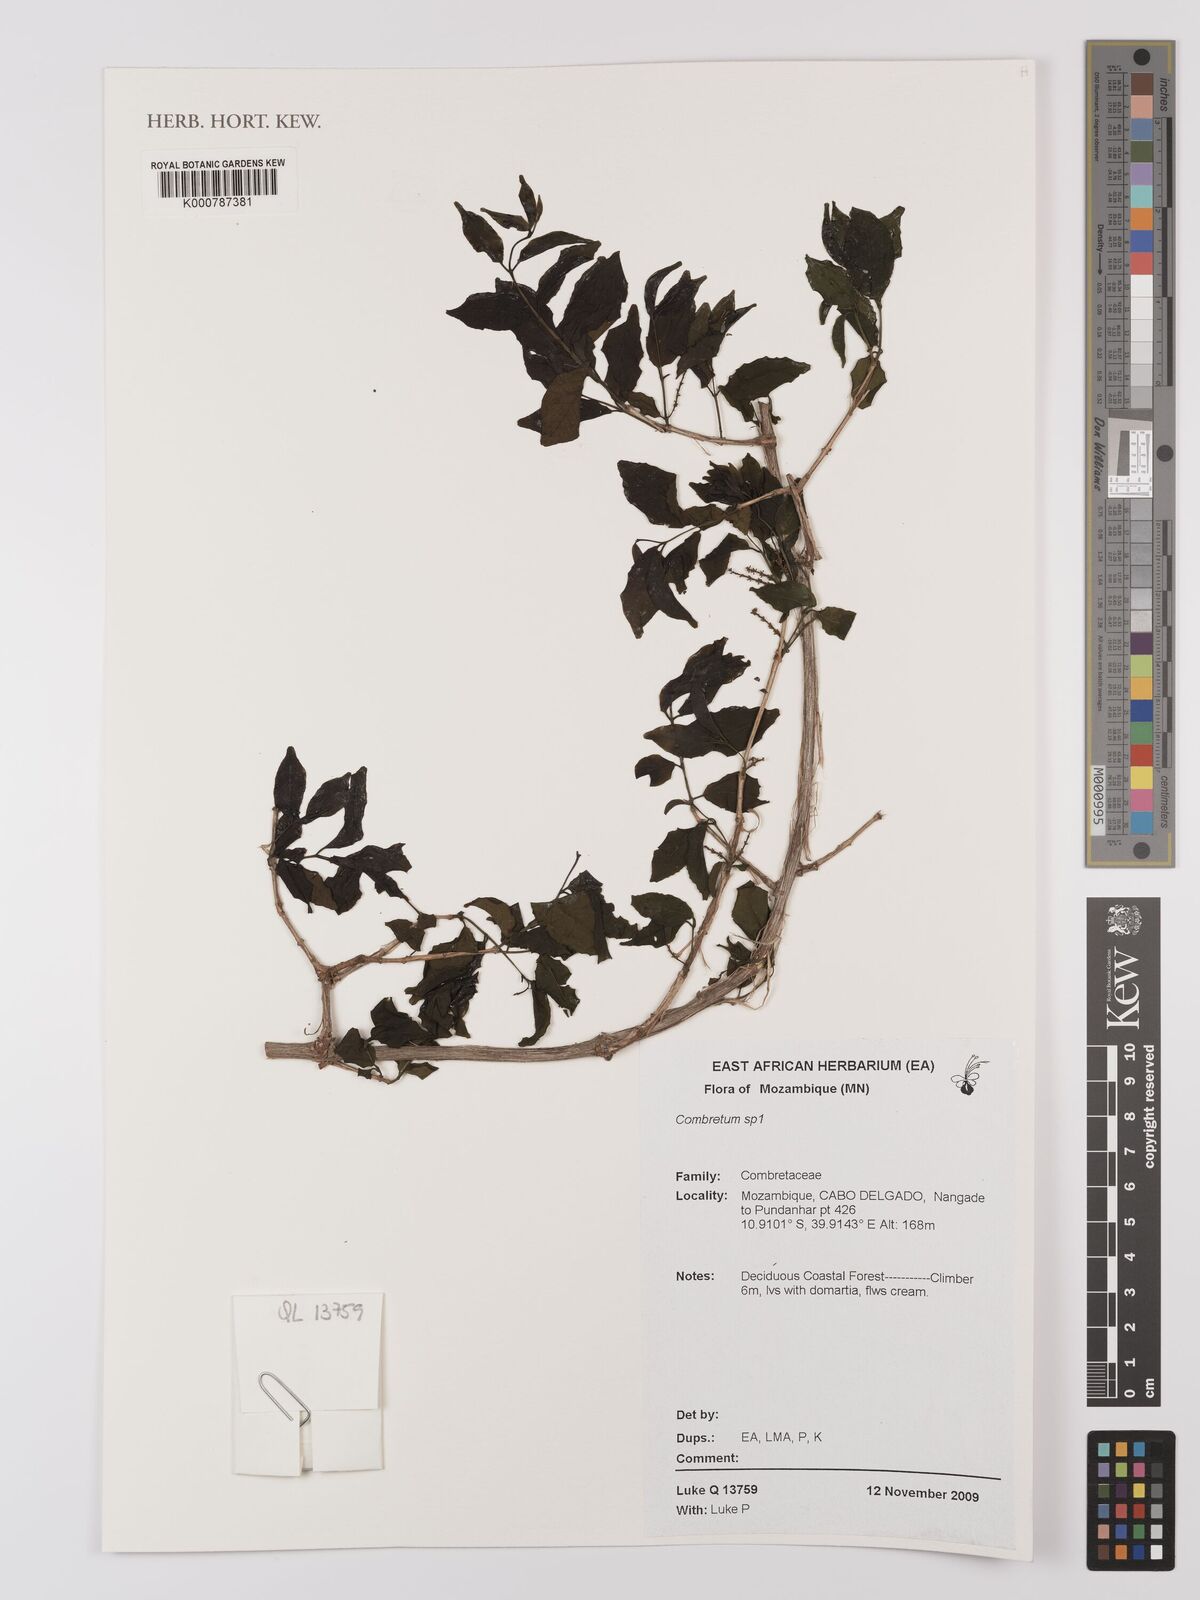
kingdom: Plantae
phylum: Tracheophyta
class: Magnoliopsida
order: Myrtales
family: Combretaceae
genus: Combretum
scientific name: Combretum
